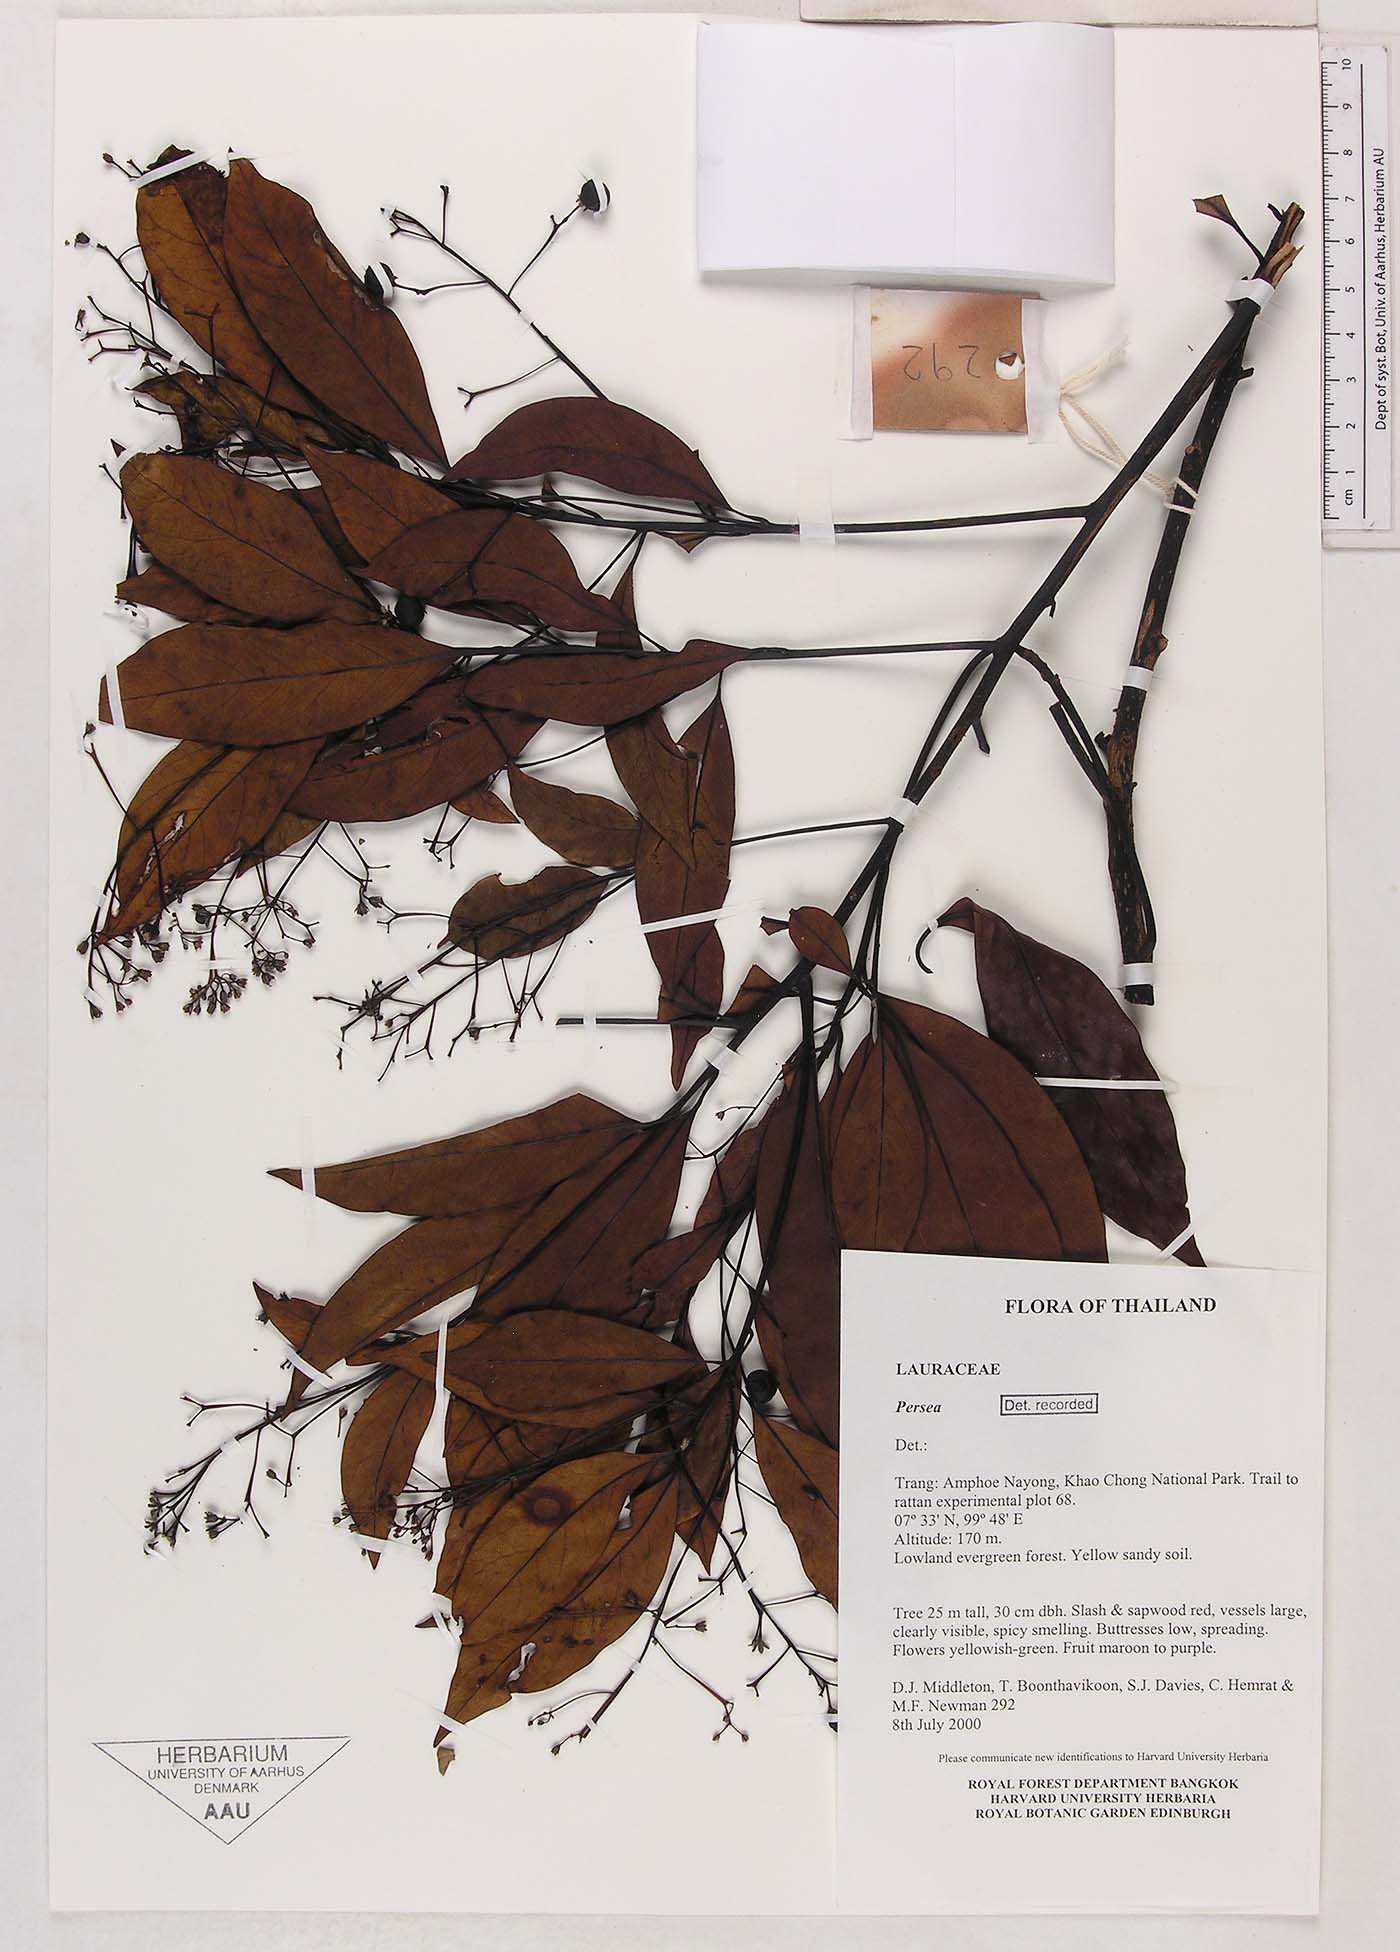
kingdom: Plantae
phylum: Tracheophyta
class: Magnoliopsida
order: Laurales
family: Lauraceae
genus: Persea
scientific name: Persea
